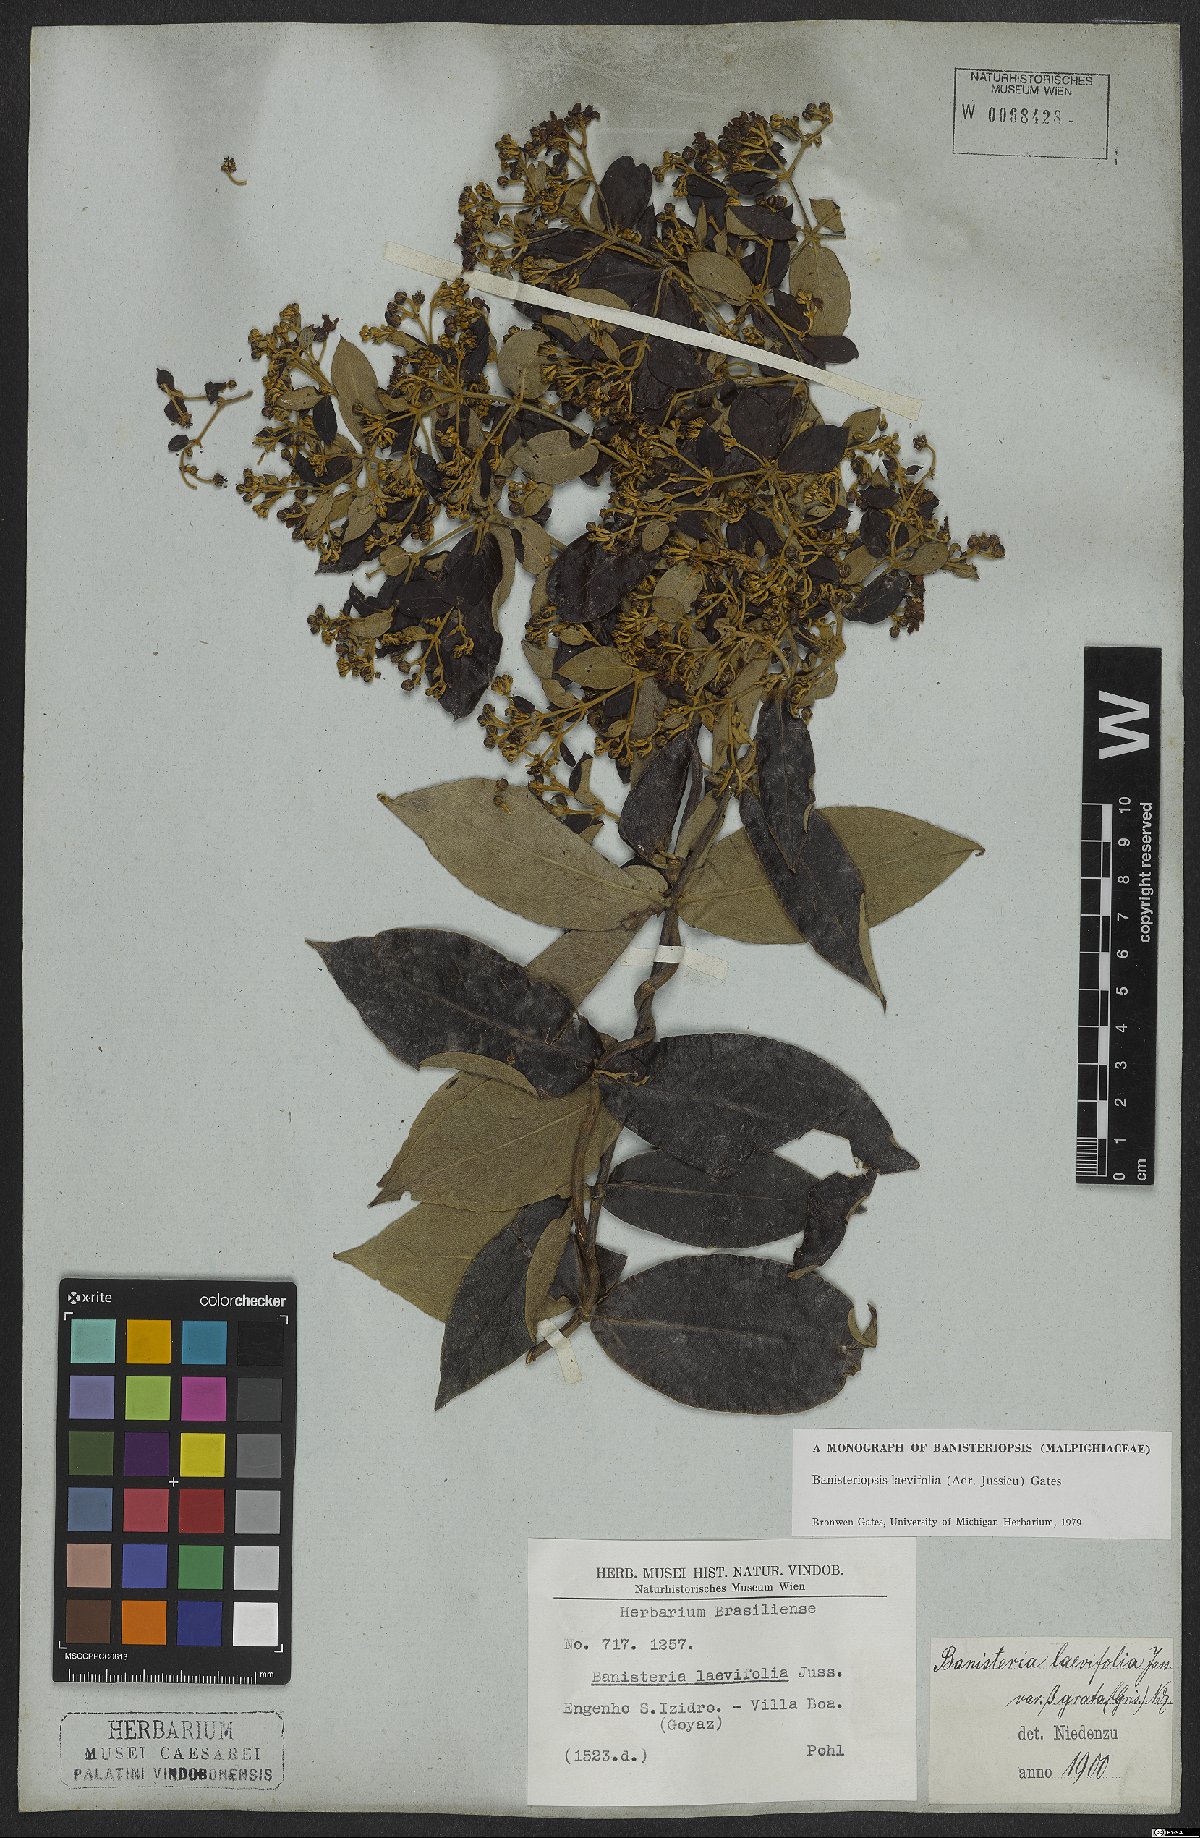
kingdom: Plantae
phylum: Tracheophyta
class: Magnoliopsida
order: Malpighiales
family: Malpighiaceae
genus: Banisteriopsis
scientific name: Banisteriopsis laevifolia
